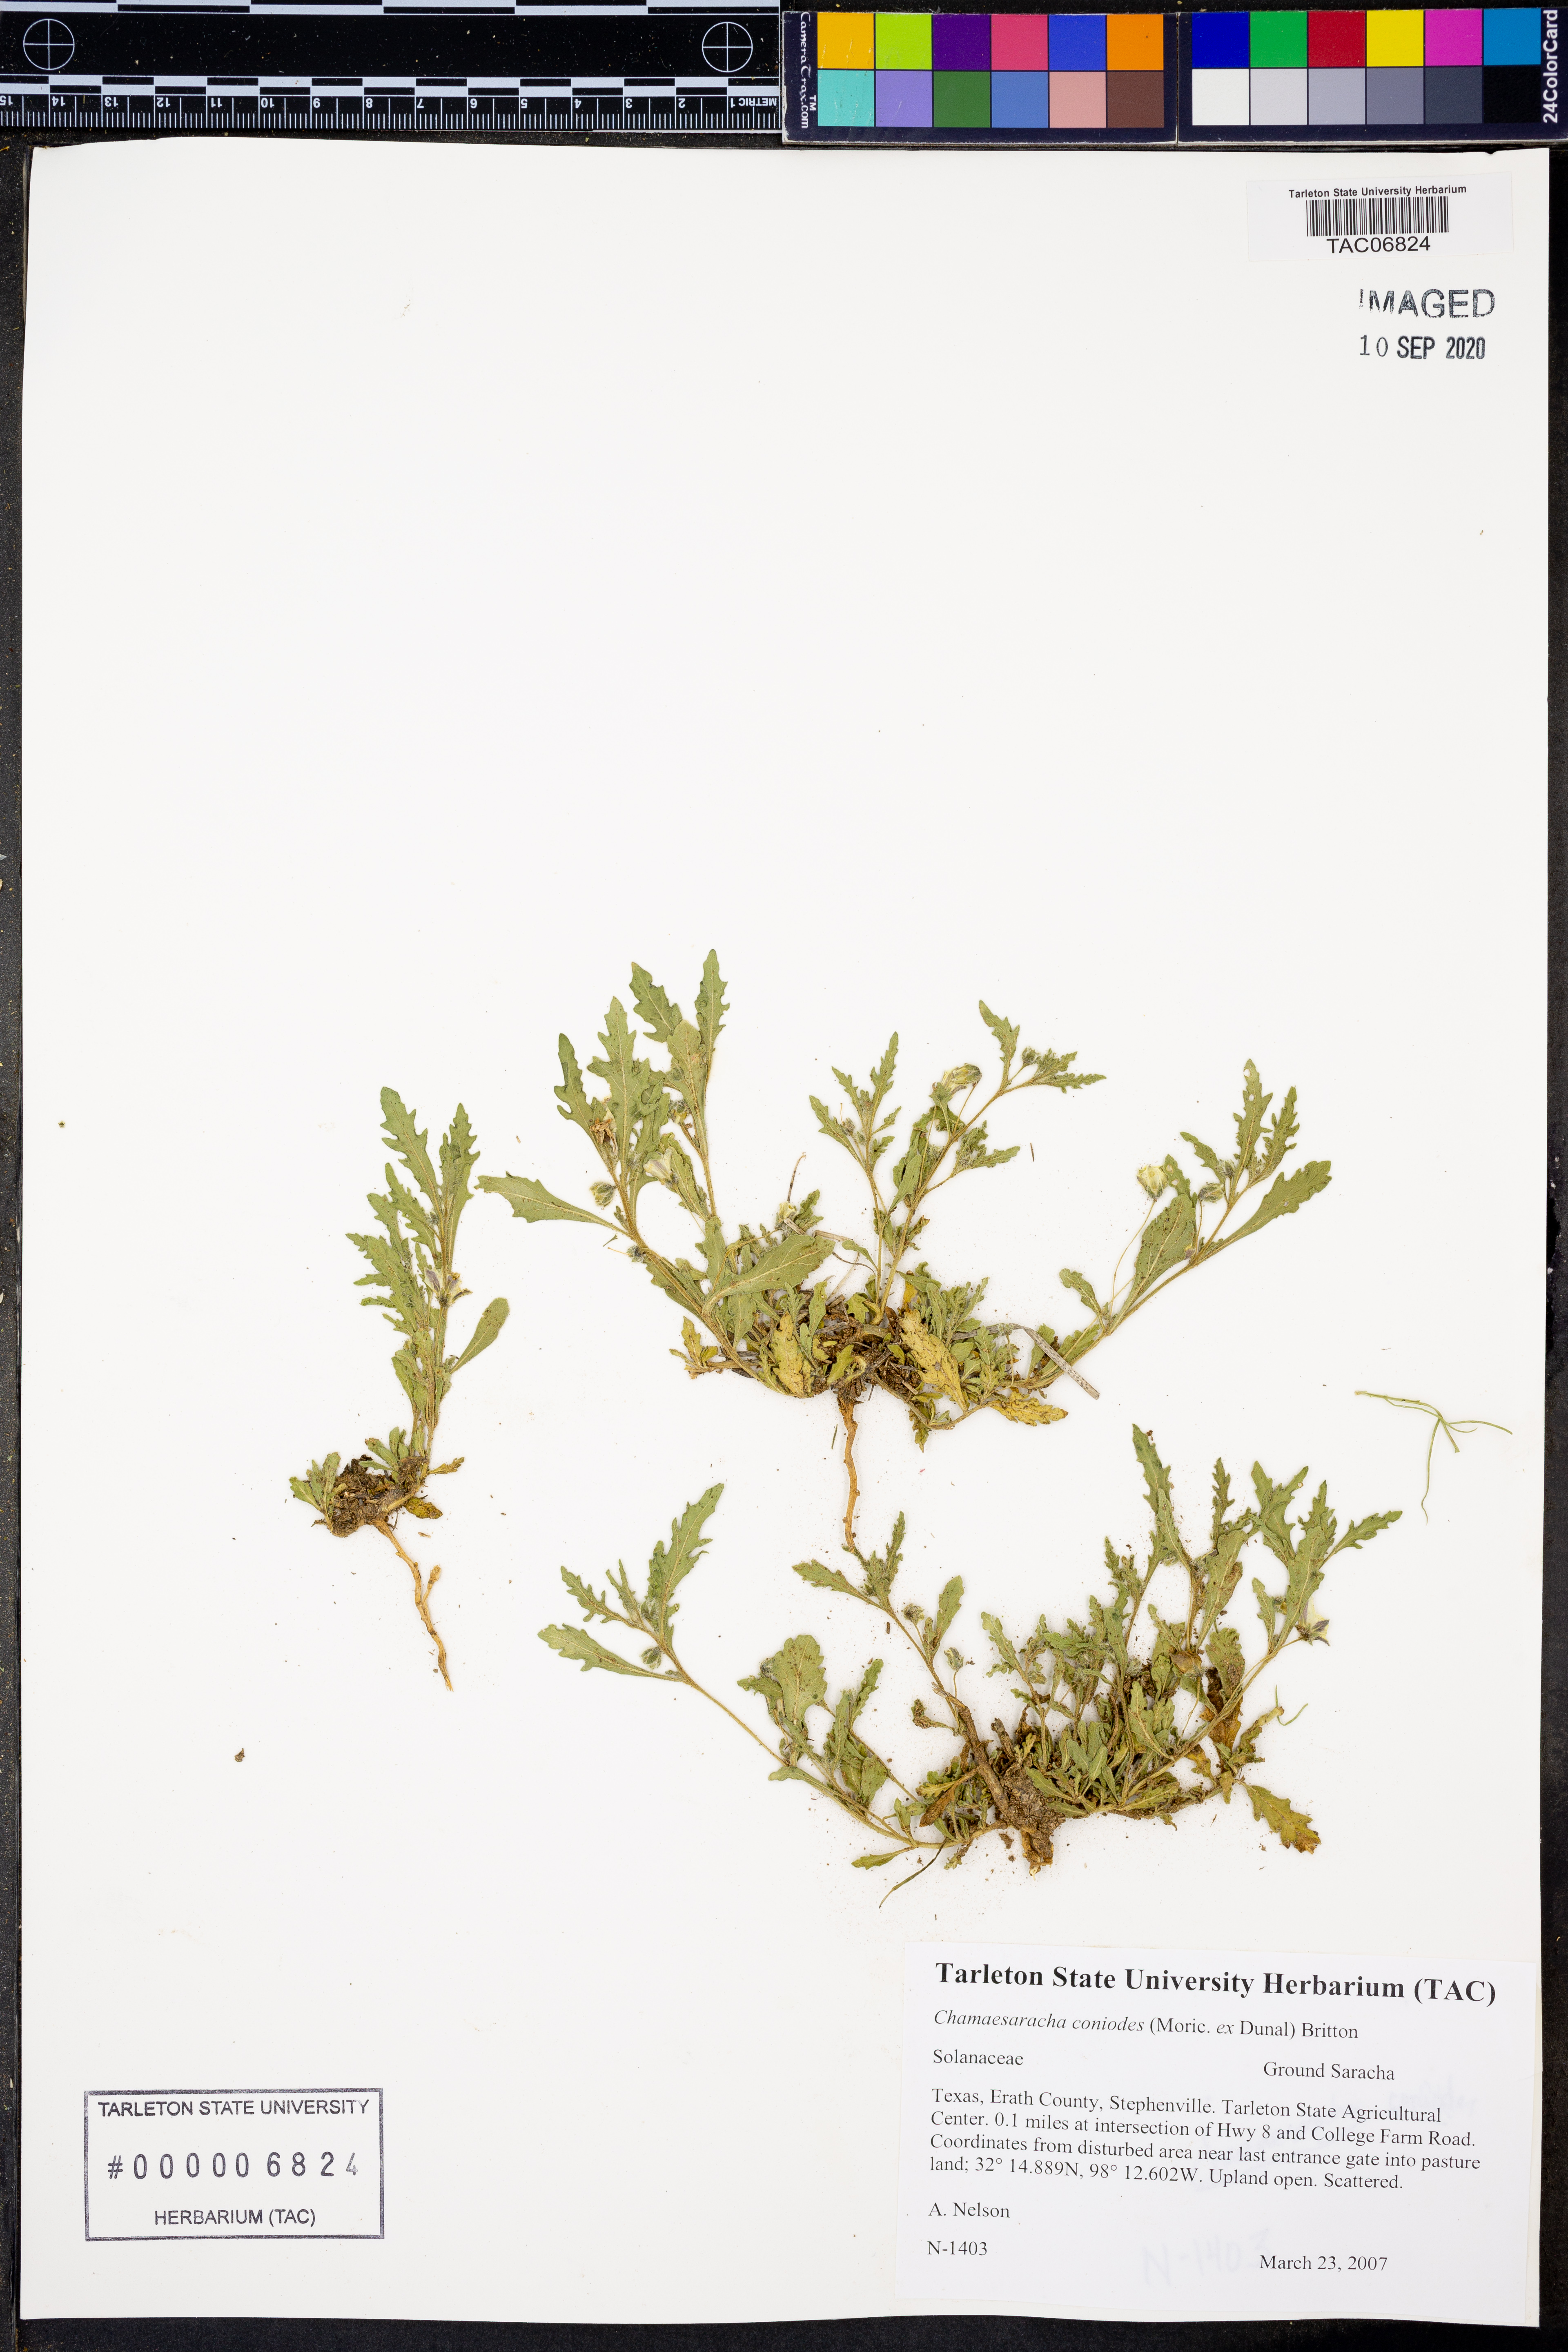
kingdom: Plantae
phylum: Tracheophyta
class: Magnoliopsida
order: Solanales
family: Solanaceae
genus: Chamaesaracha
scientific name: Chamaesaracha coniodes
